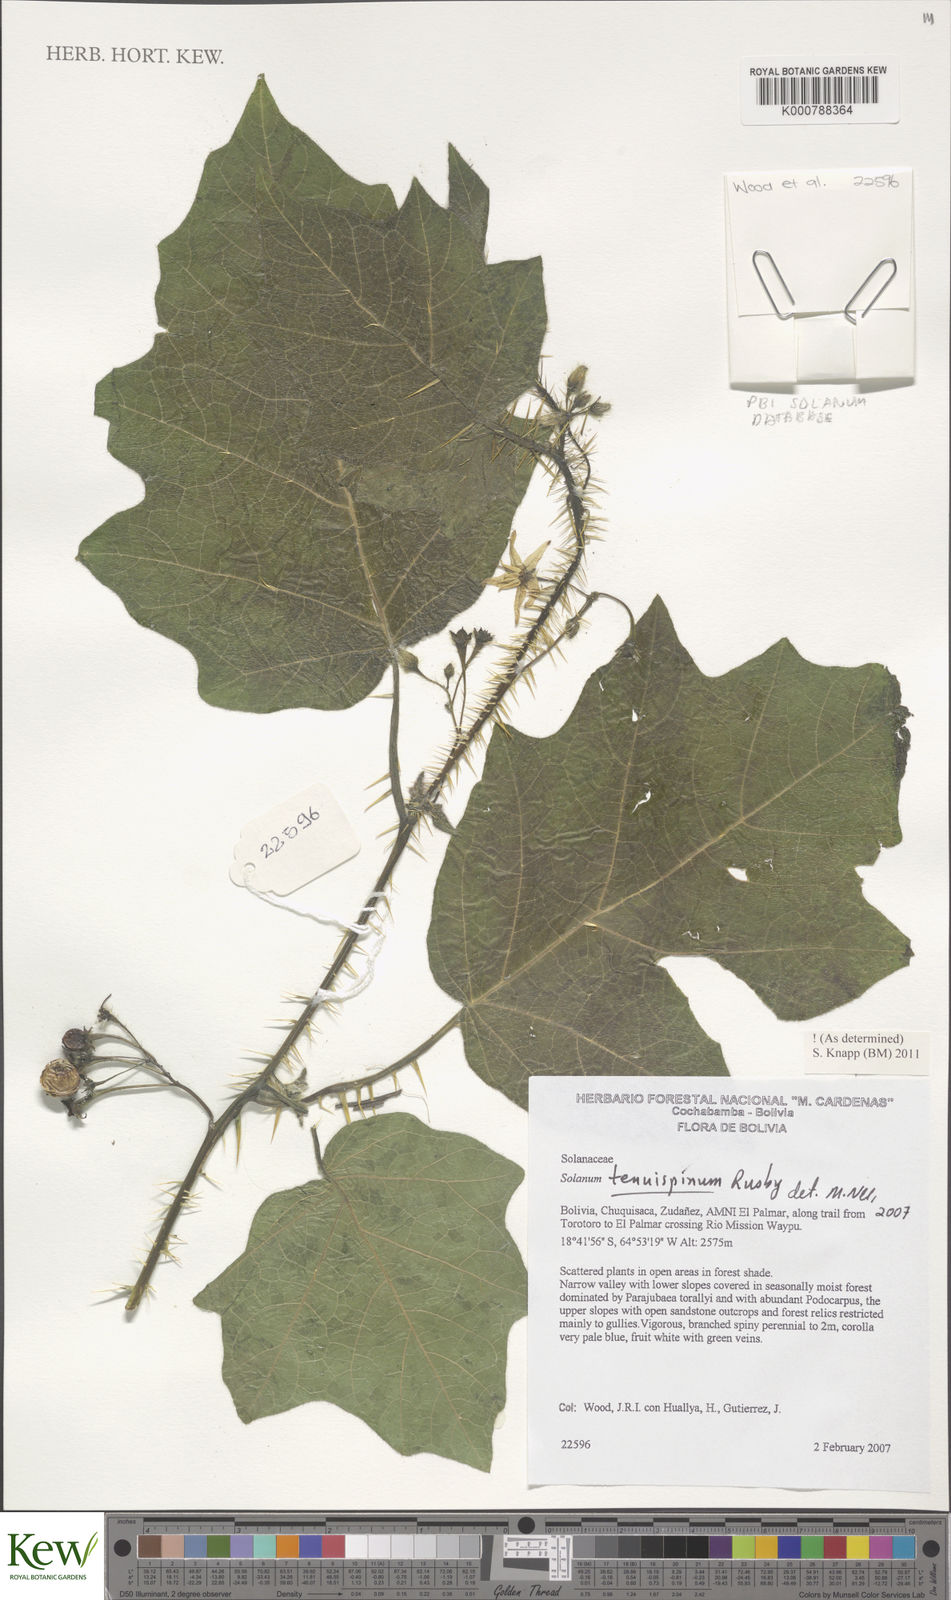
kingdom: Plantae
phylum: Tracheophyta
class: Magnoliopsida
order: Solanales
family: Solanaceae
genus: Solanum
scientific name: Solanum tenuispinum
